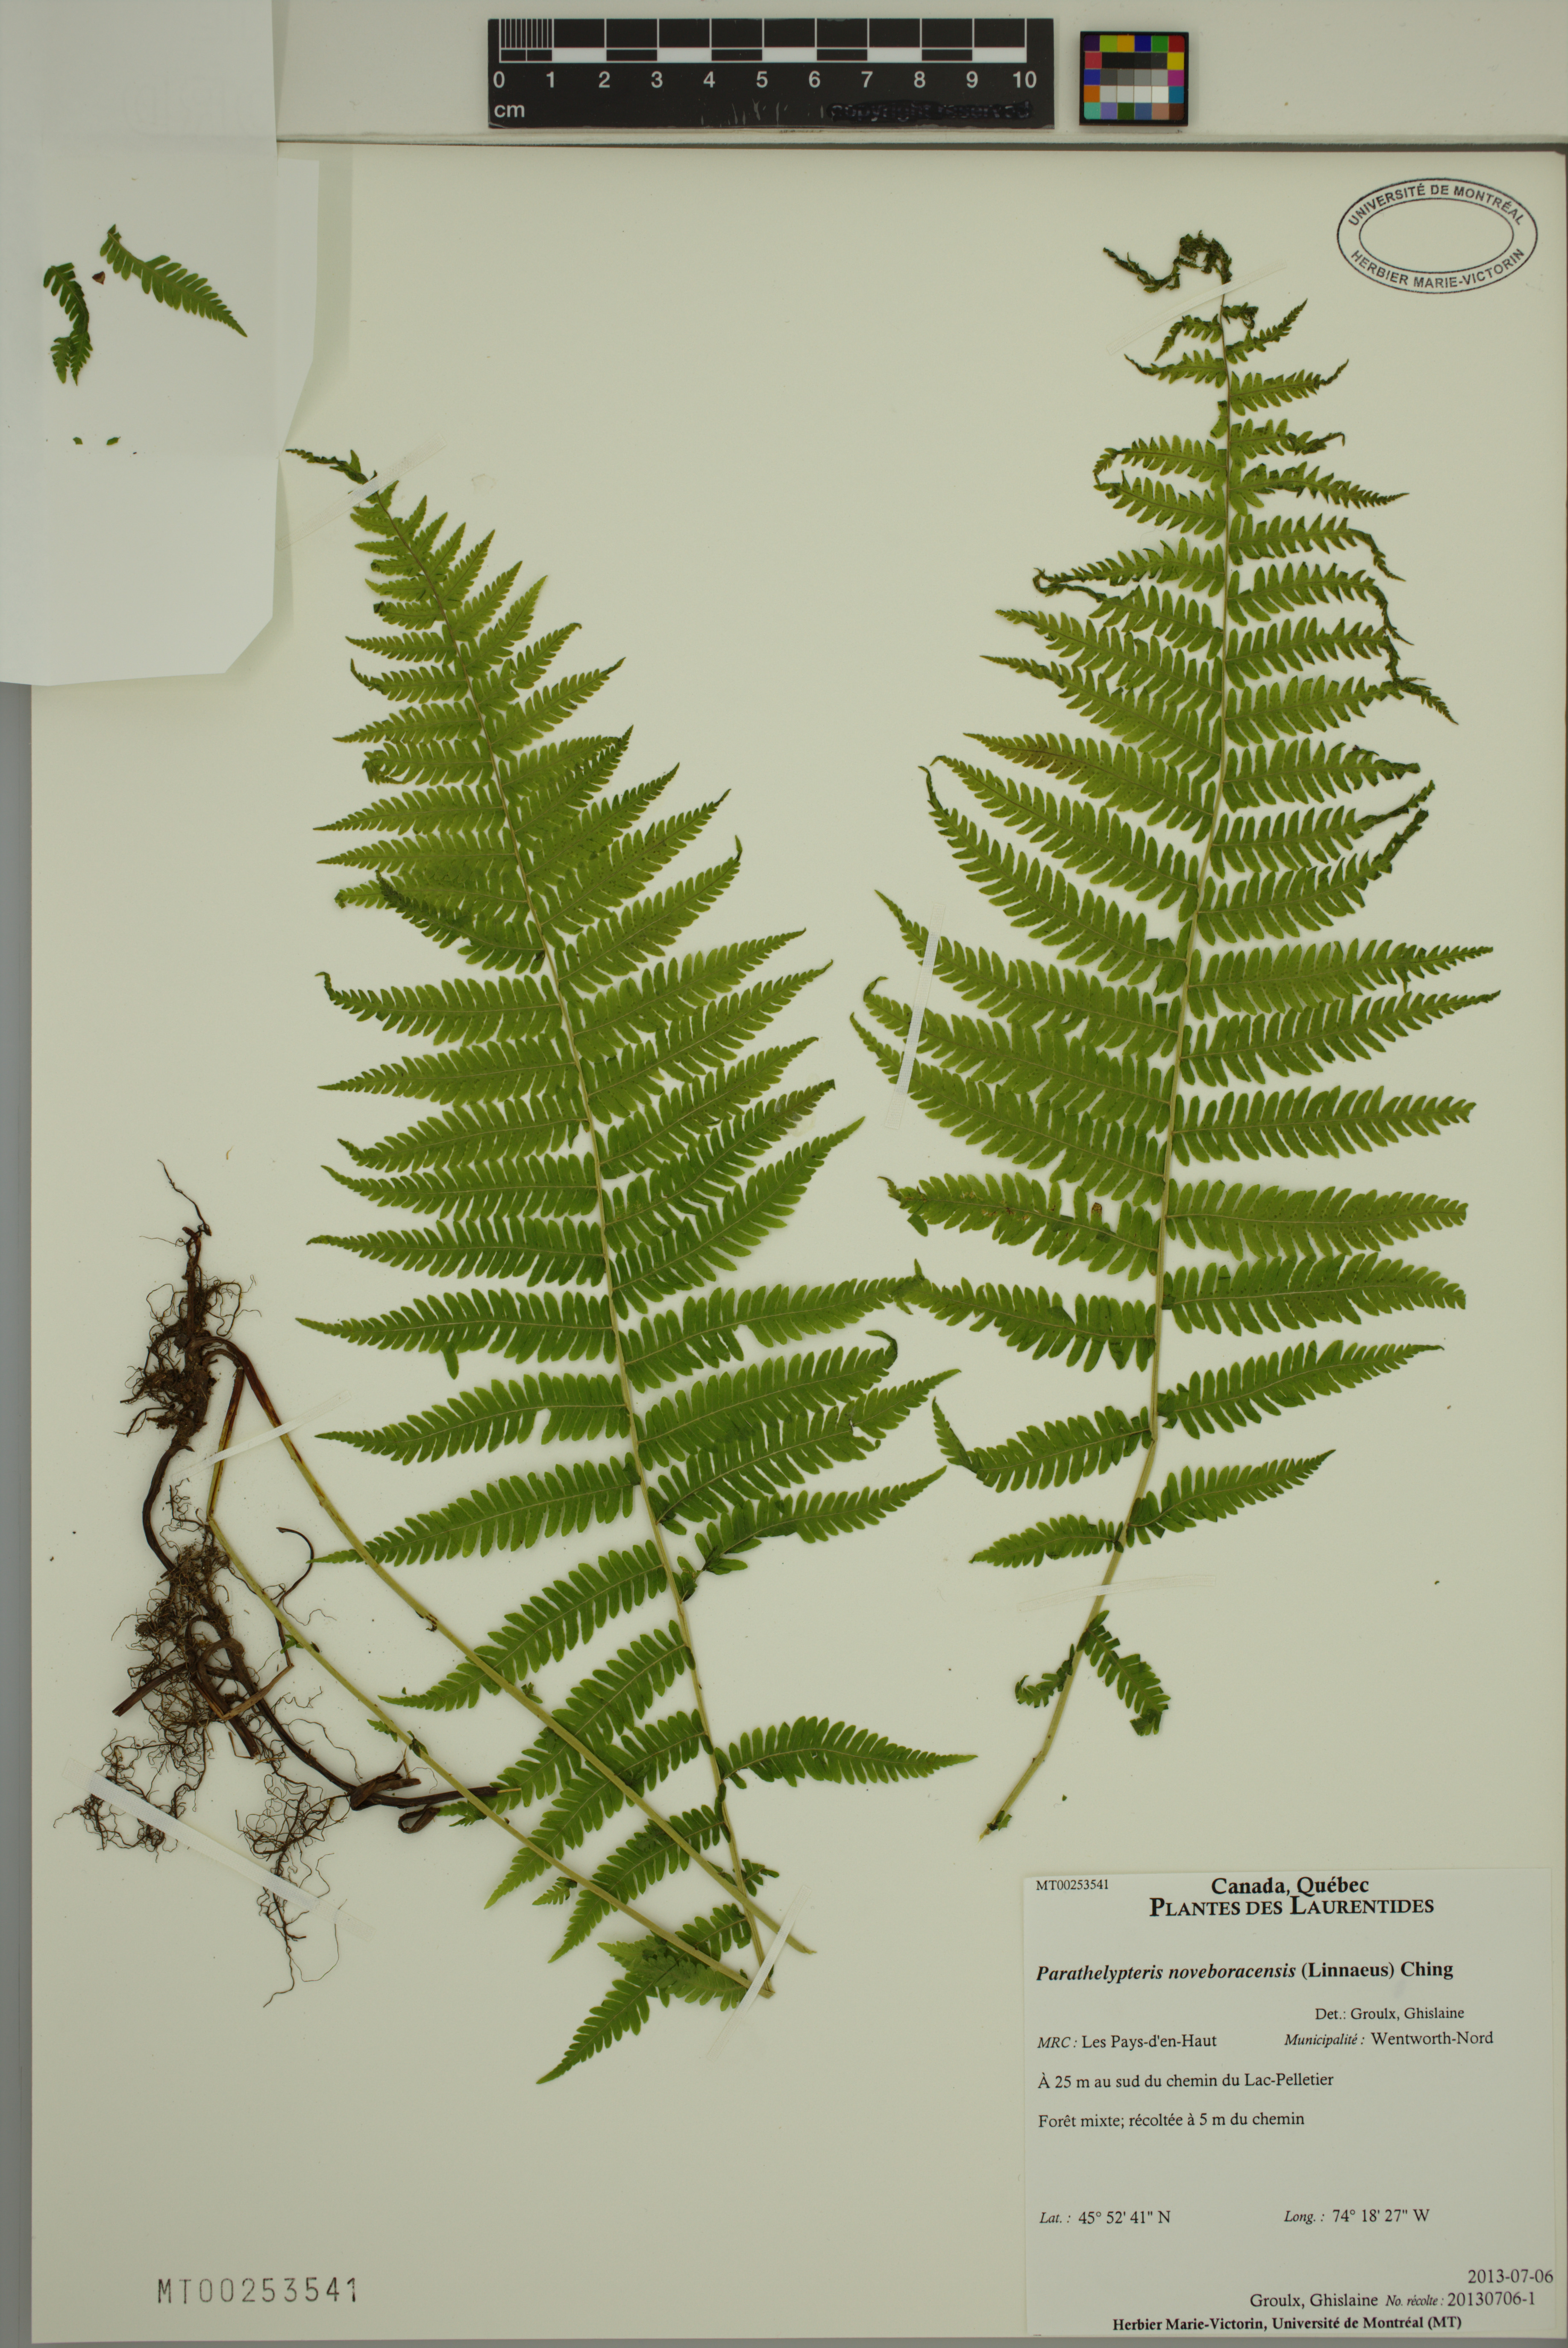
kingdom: Plantae
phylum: Tracheophyta
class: Polypodiopsida
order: Polypodiales
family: Thelypteridaceae
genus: Amauropelta
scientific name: Amauropelta noveboracensis
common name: New york fern
